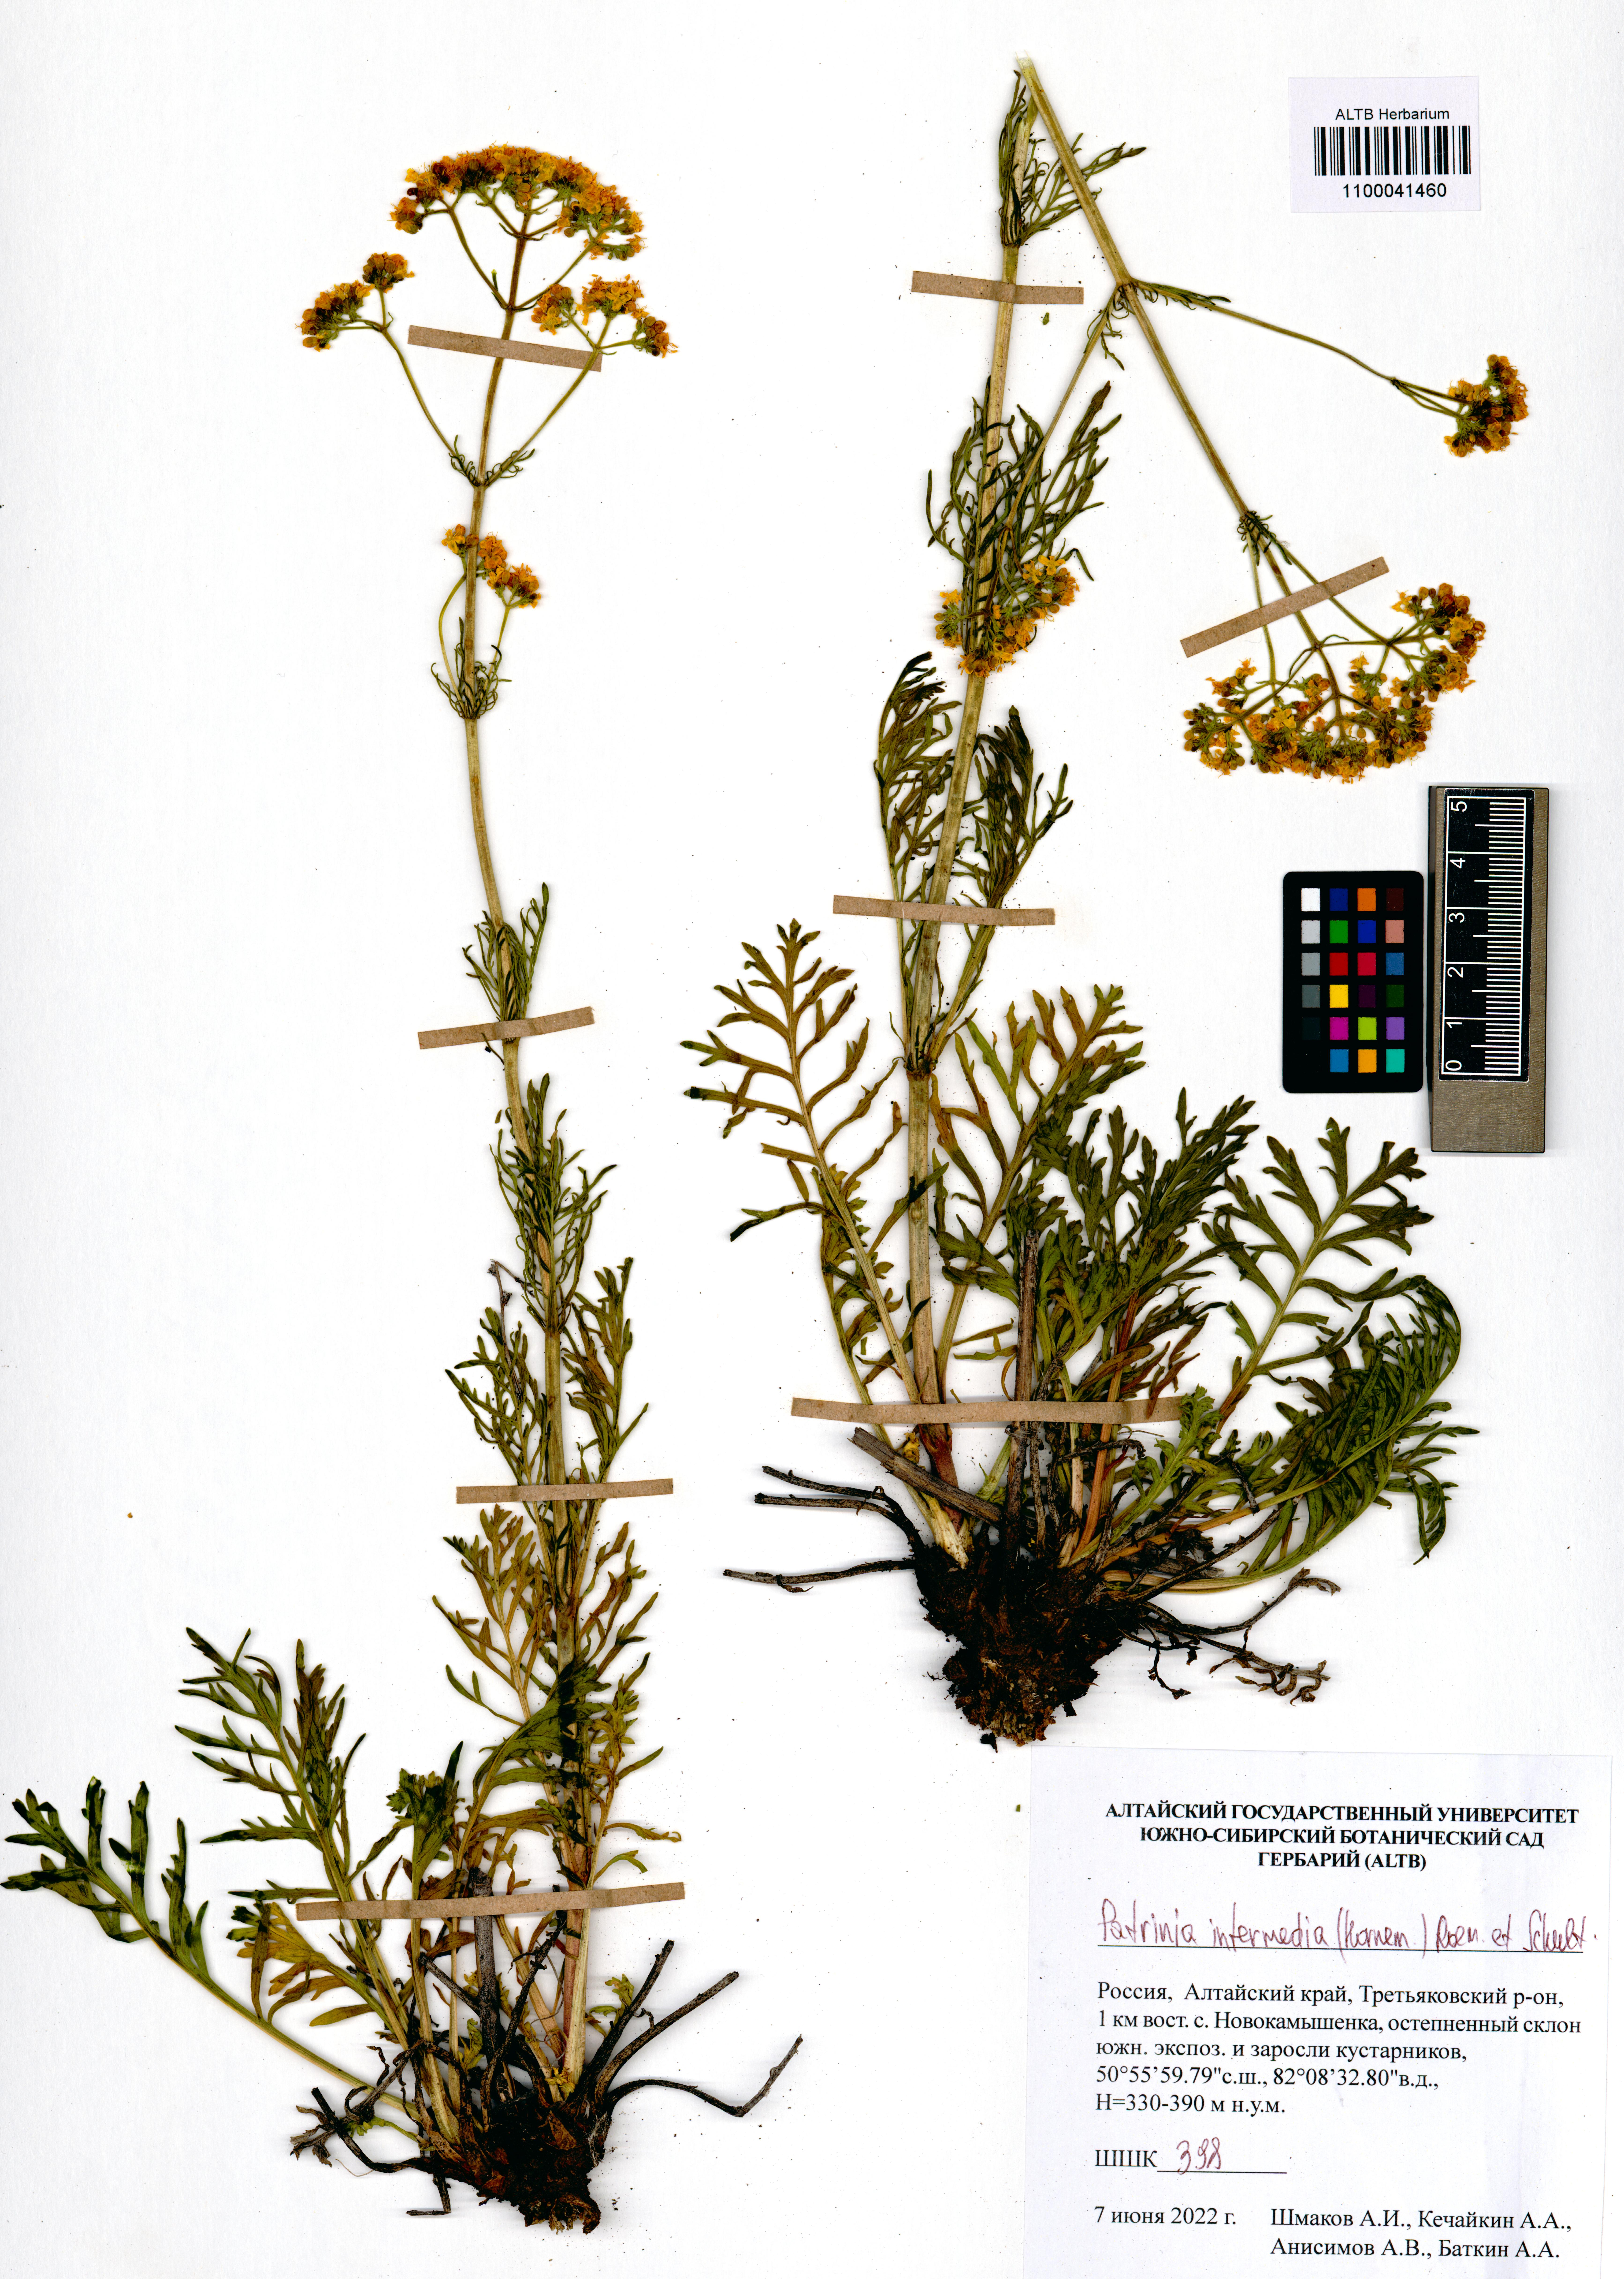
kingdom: Plantae
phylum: Tracheophyta
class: Magnoliopsida
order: Dipsacales
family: Caprifoliaceae
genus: Patrinia
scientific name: Patrinia intermedia
